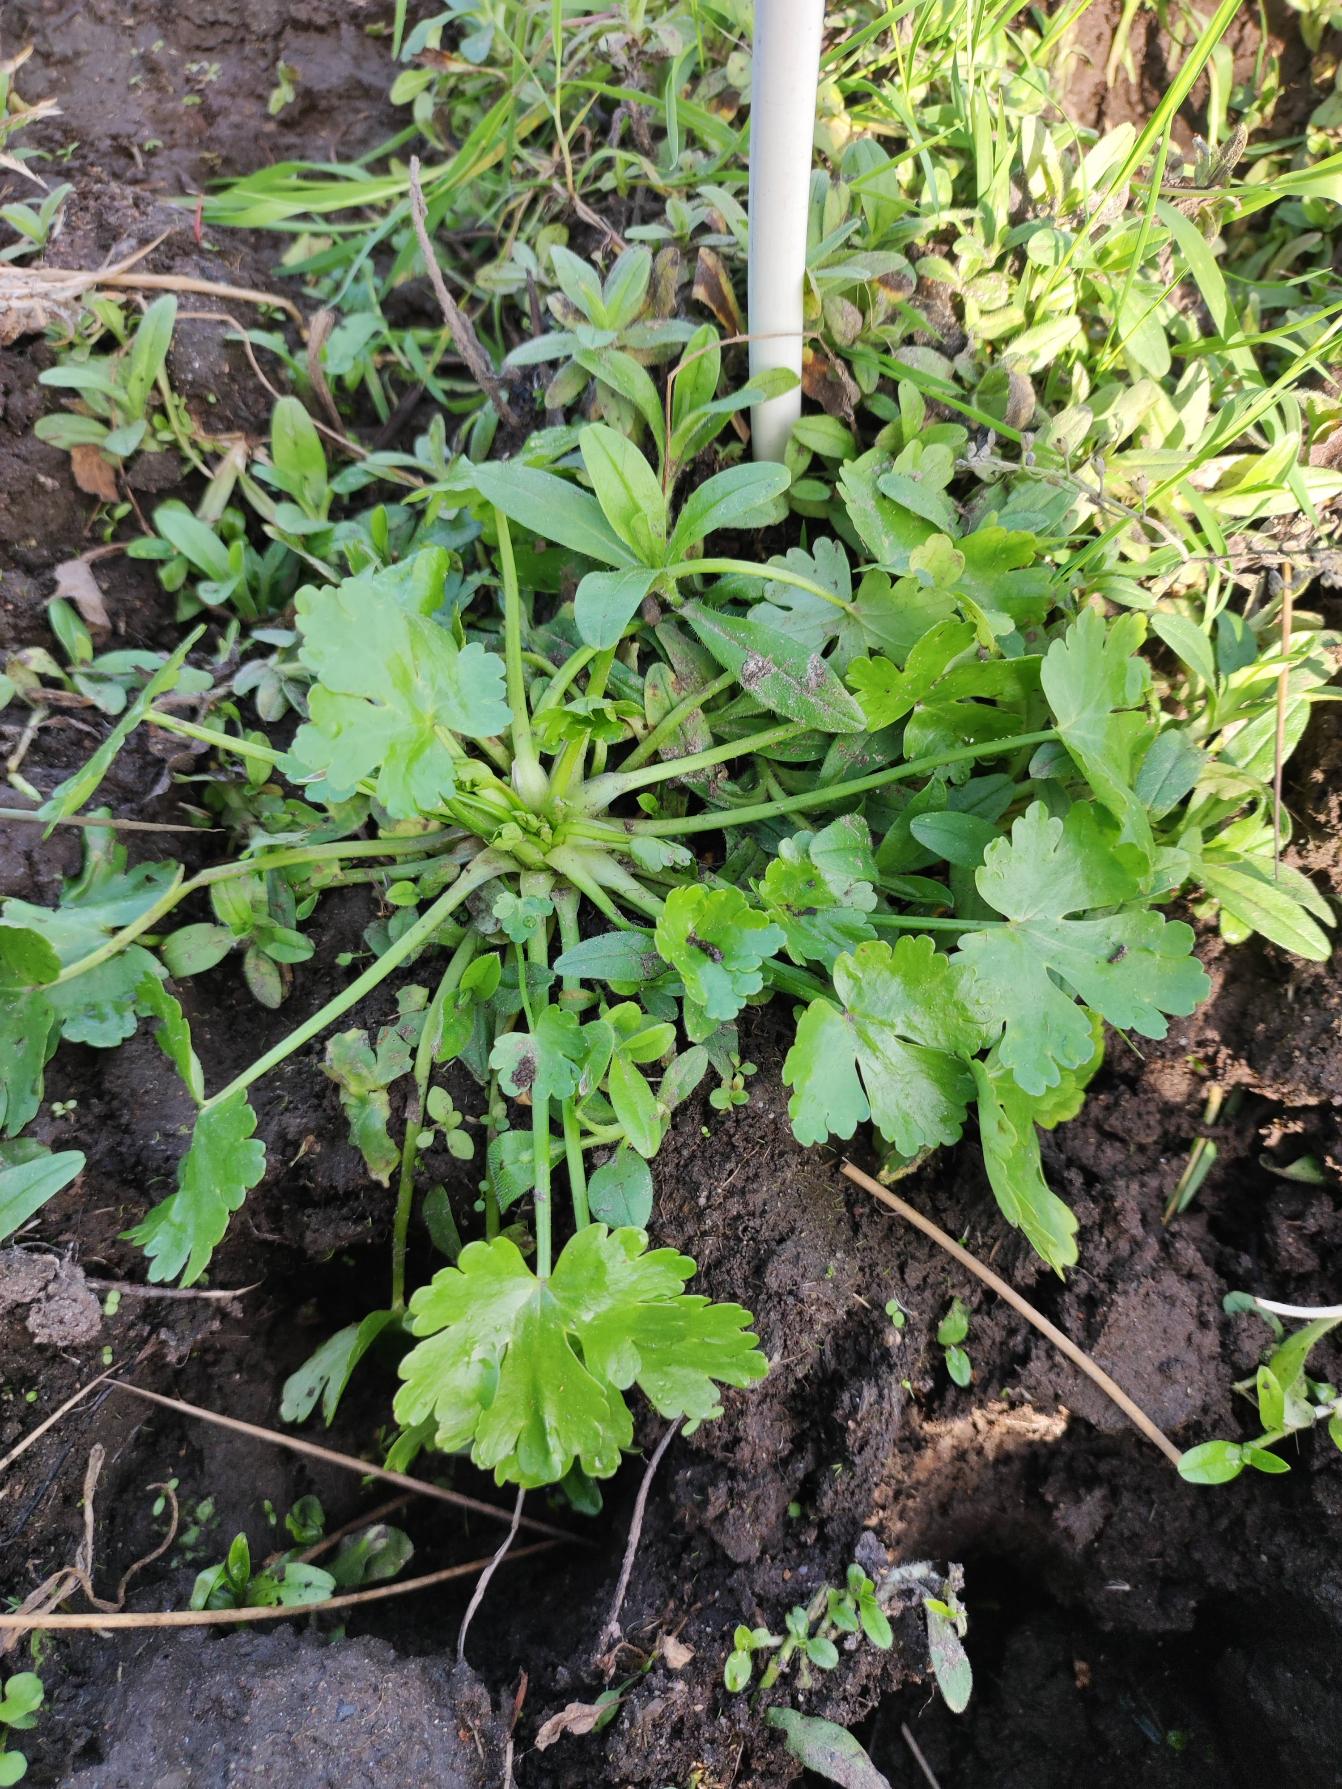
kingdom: Plantae
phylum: Tracheophyta
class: Magnoliopsida
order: Ranunculales
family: Ranunculaceae
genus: Ranunculus
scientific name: Ranunculus sceleratus
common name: Tigger-ranunkel
